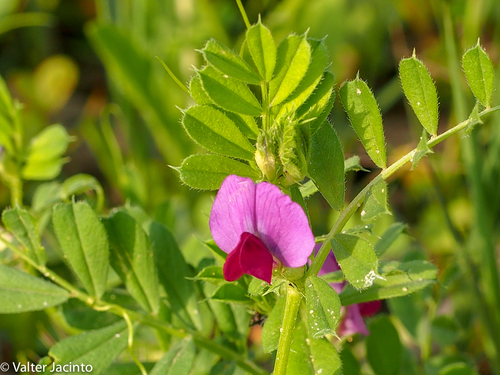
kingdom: Plantae
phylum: Tracheophyta
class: Magnoliopsida
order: Fabales
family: Fabaceae
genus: Vicia
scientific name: Vicia sativa
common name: Garden vetch
